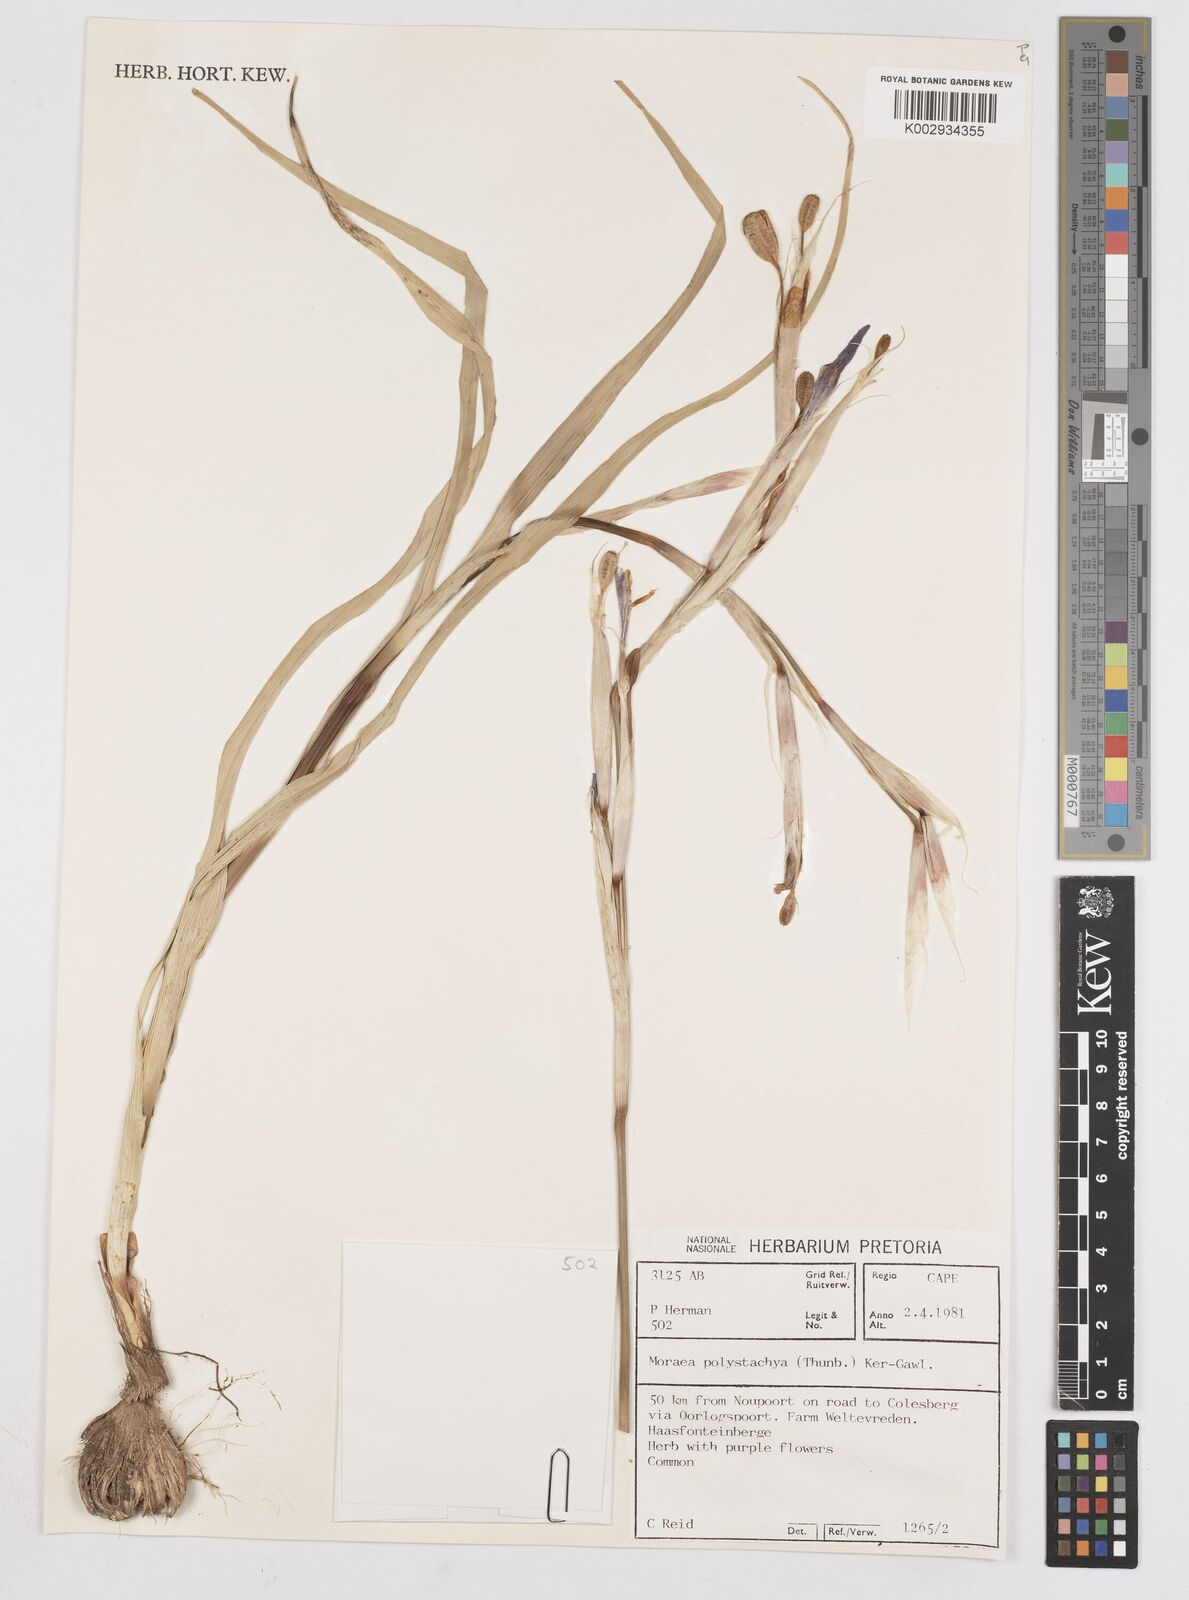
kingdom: Plantae
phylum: Tracheophyta
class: Liliopsida
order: Asparagales
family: Iridaceae
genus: Moraea
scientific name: Moraea polystachya
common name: Blue-tulip
